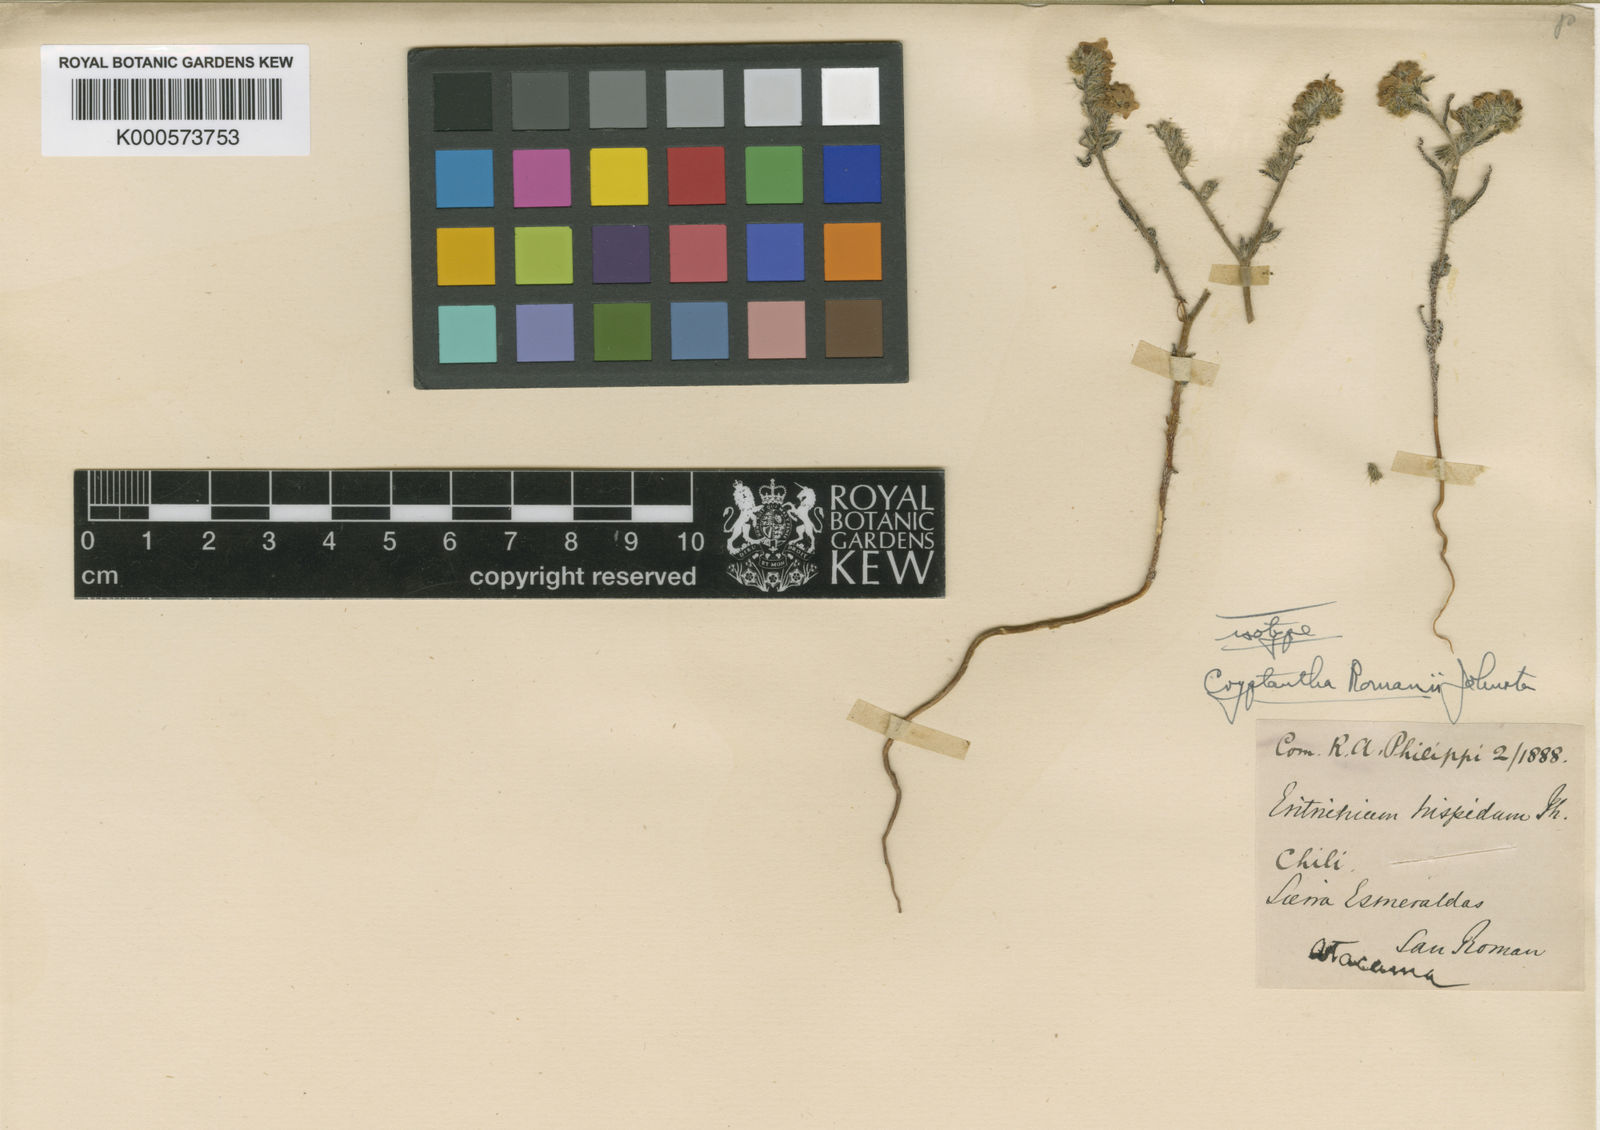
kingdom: Plantae
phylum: Tracheophyta
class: Magnoliopsida
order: Boraginales
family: Boraginaceae
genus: Cryptantha
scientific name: Cryptantha romanii
